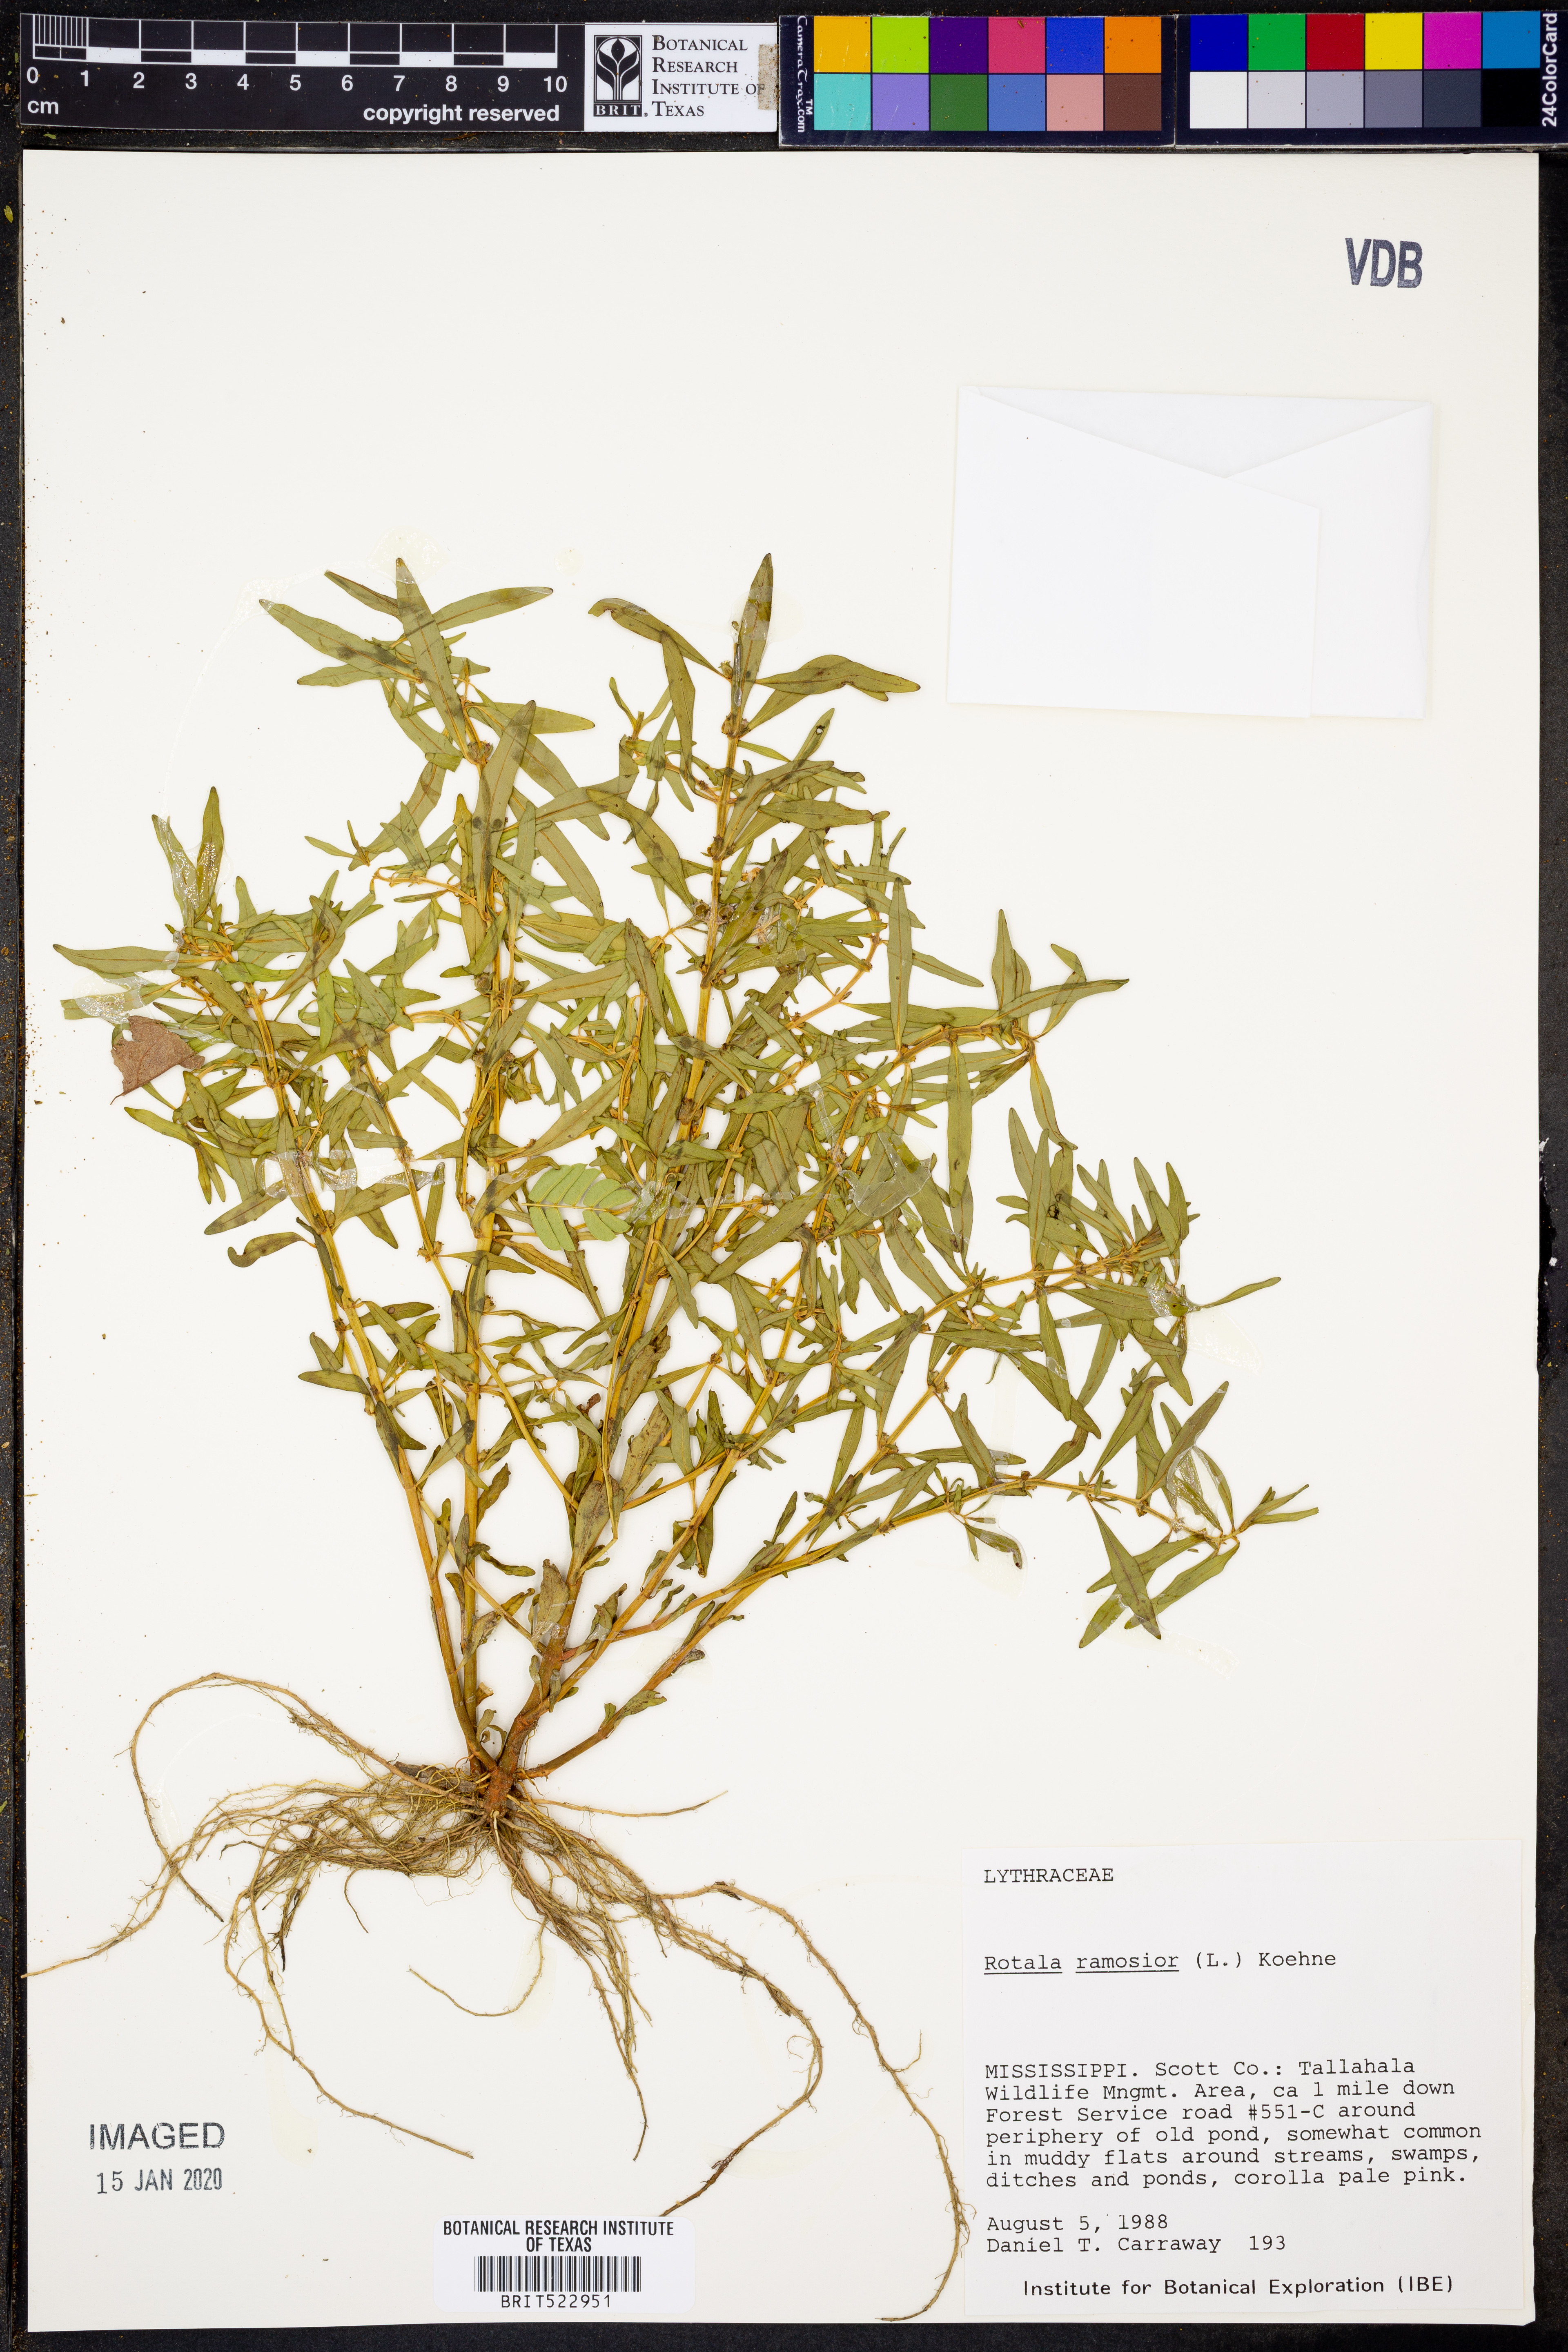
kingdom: Plantae
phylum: Tracheophyta
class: Magnoliopsida
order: Myrtales
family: Lythraceae
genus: Rotala
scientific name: Rotala ramosior
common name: Lowland rotala
